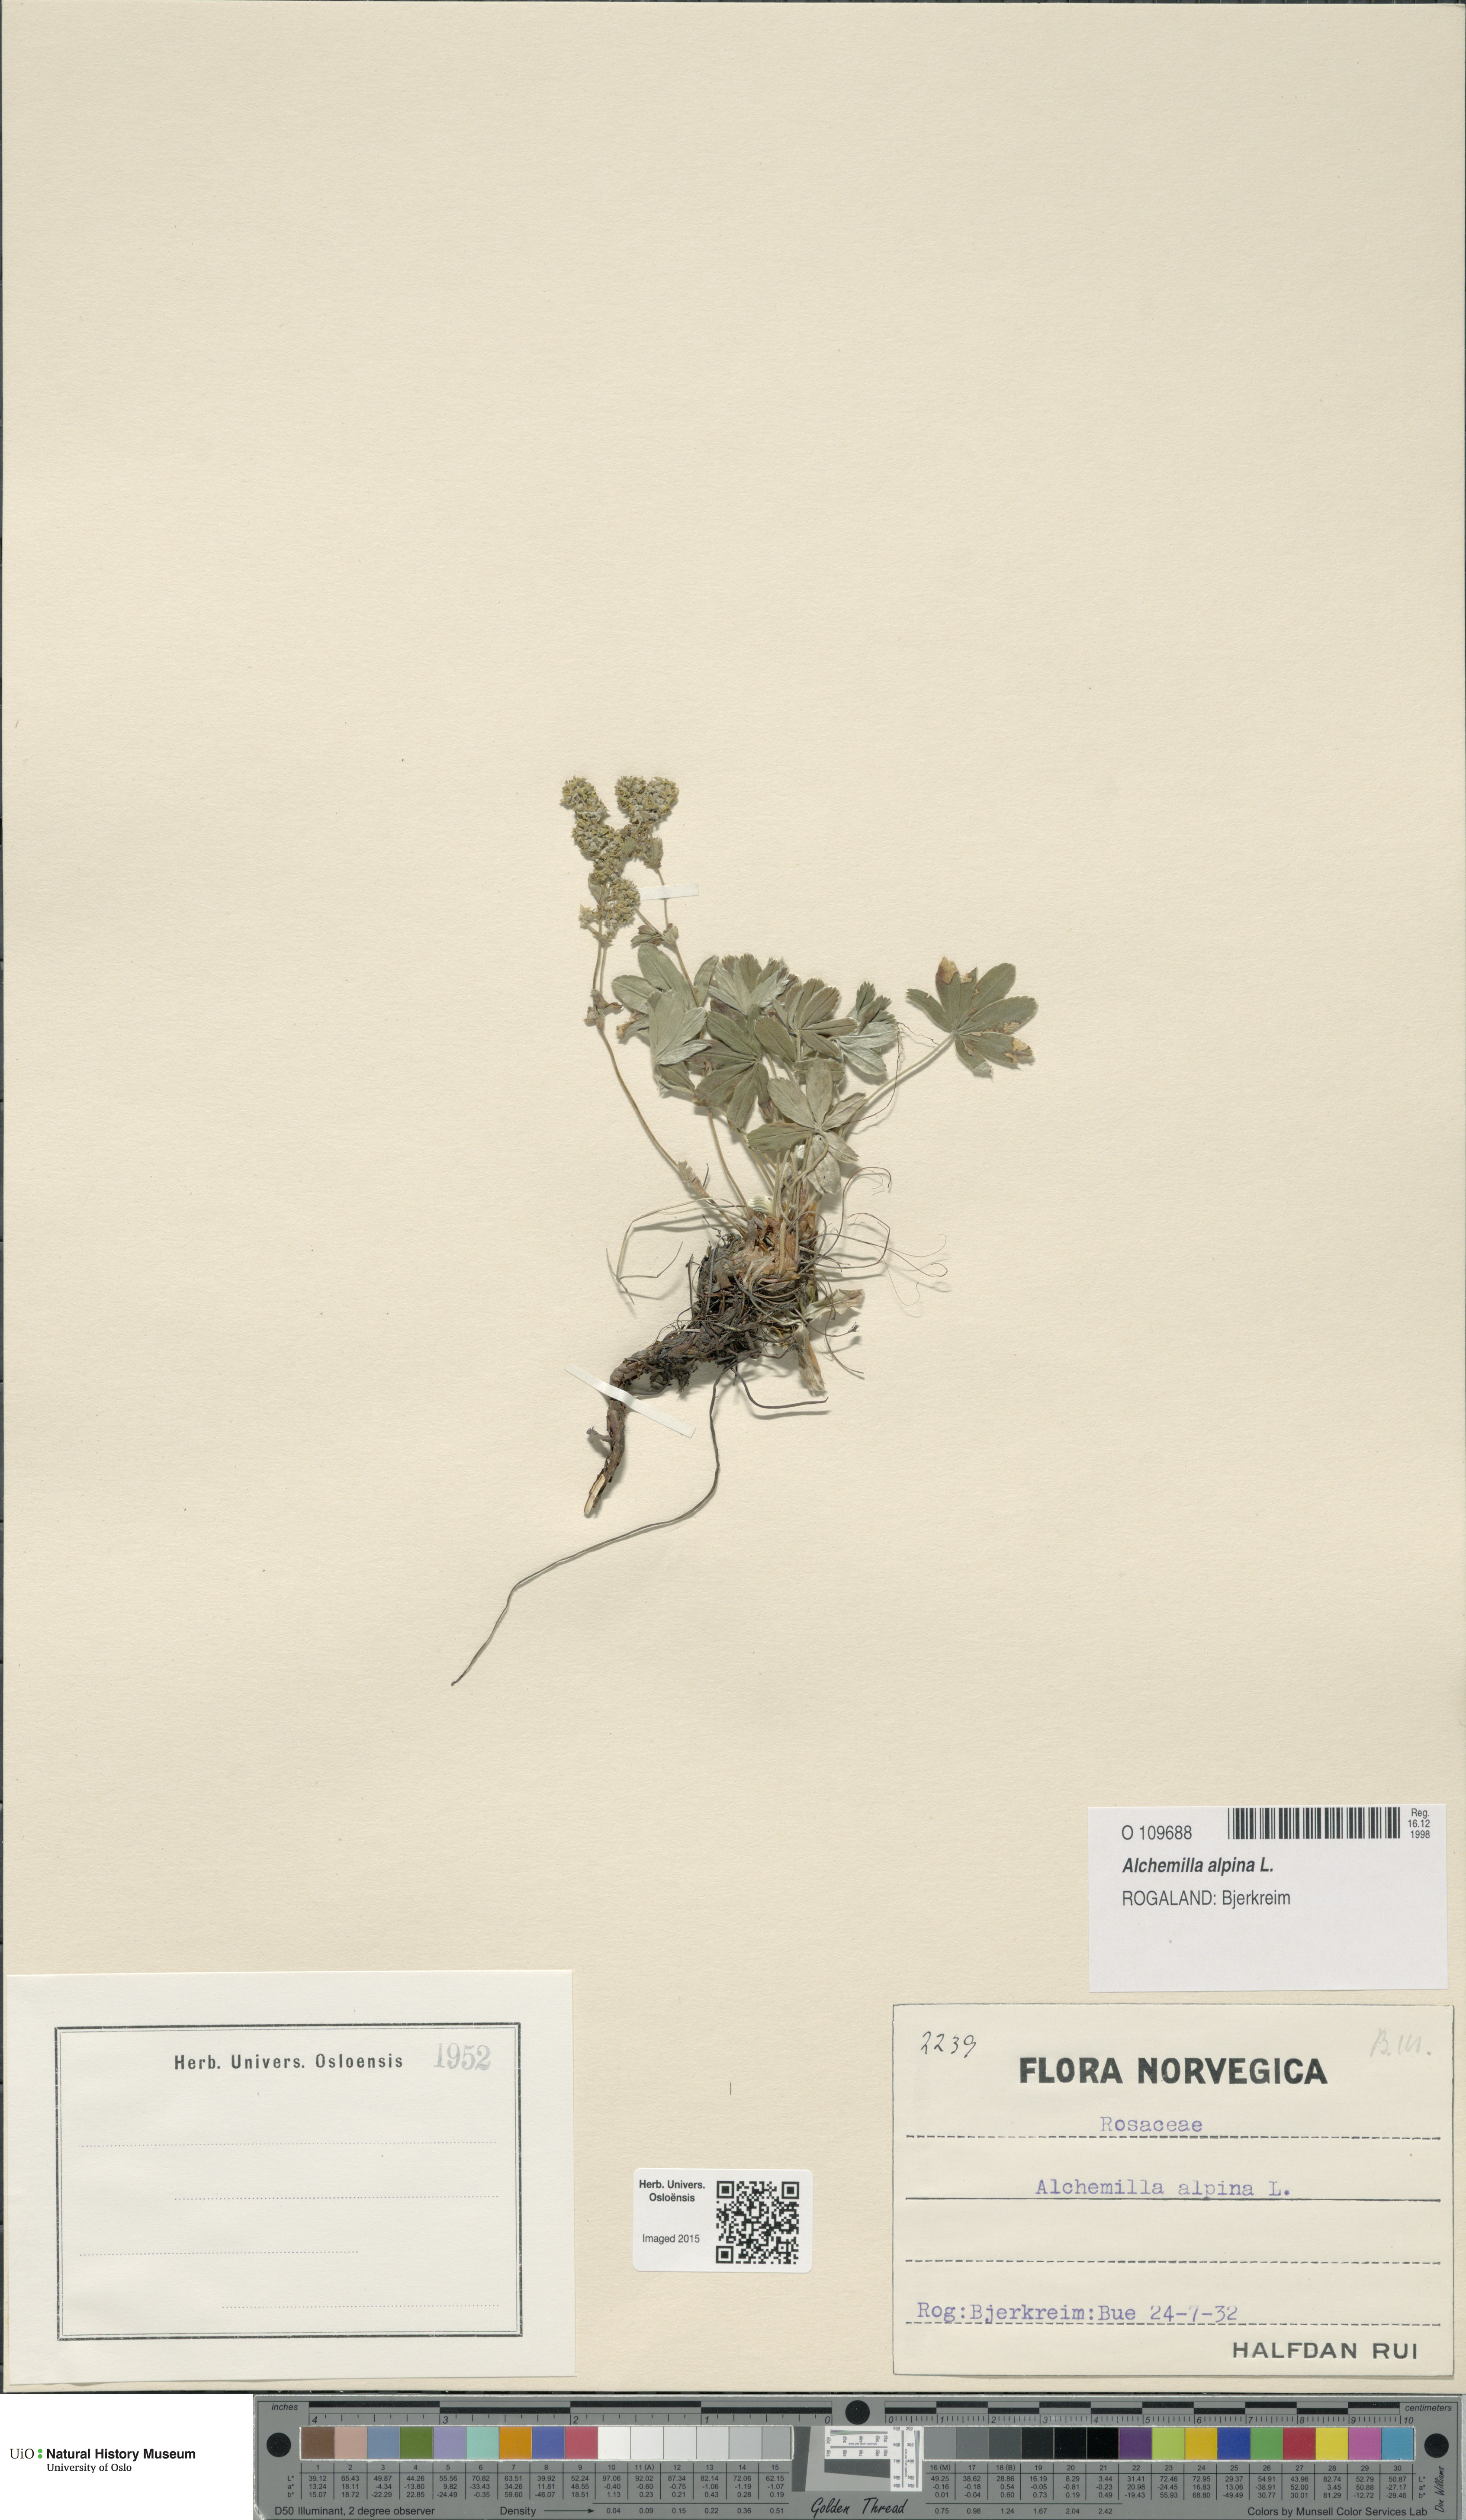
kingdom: Plantae
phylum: Tracheophyta
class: Magnoliopsida
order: Rosales
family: Rosaceae
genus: Alchemilla
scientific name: Alchemilla alpina
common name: Alpine lady's-mantle
